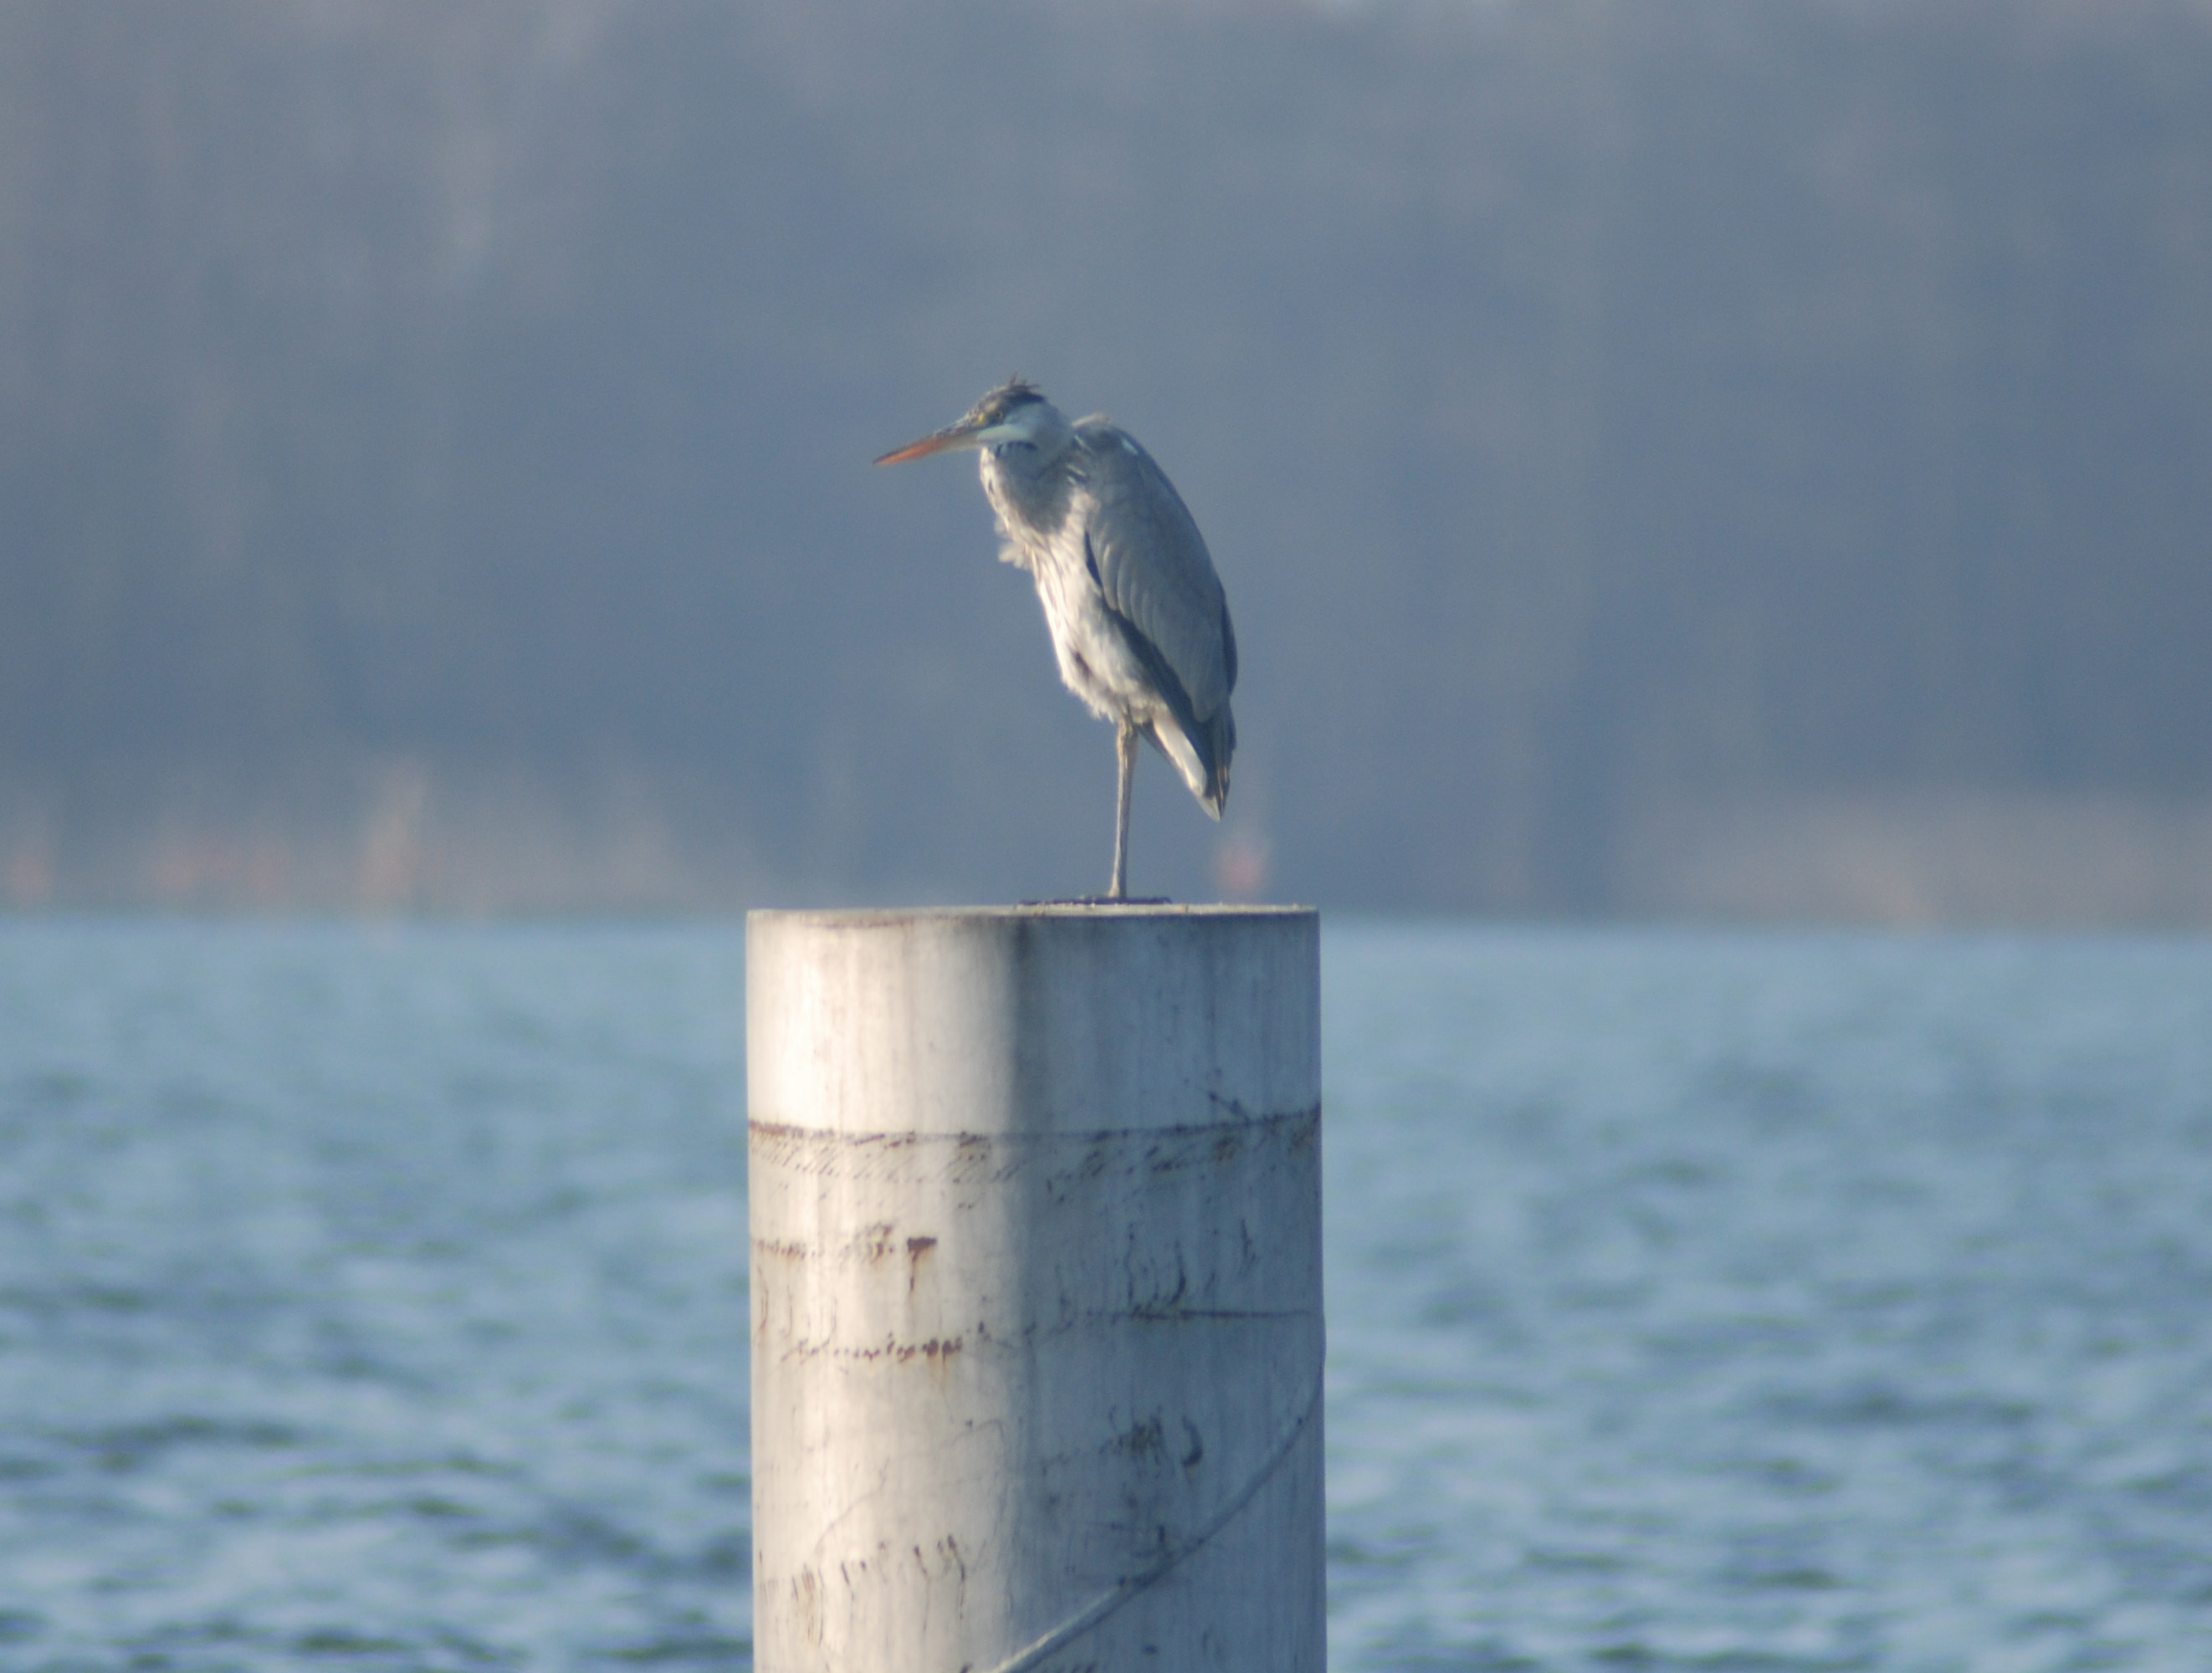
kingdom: Animalia
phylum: Chordata
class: Aves
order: Pelecaniformes
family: Ardeidae
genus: Ardea
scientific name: Ardea cinerea
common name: Grey heron
